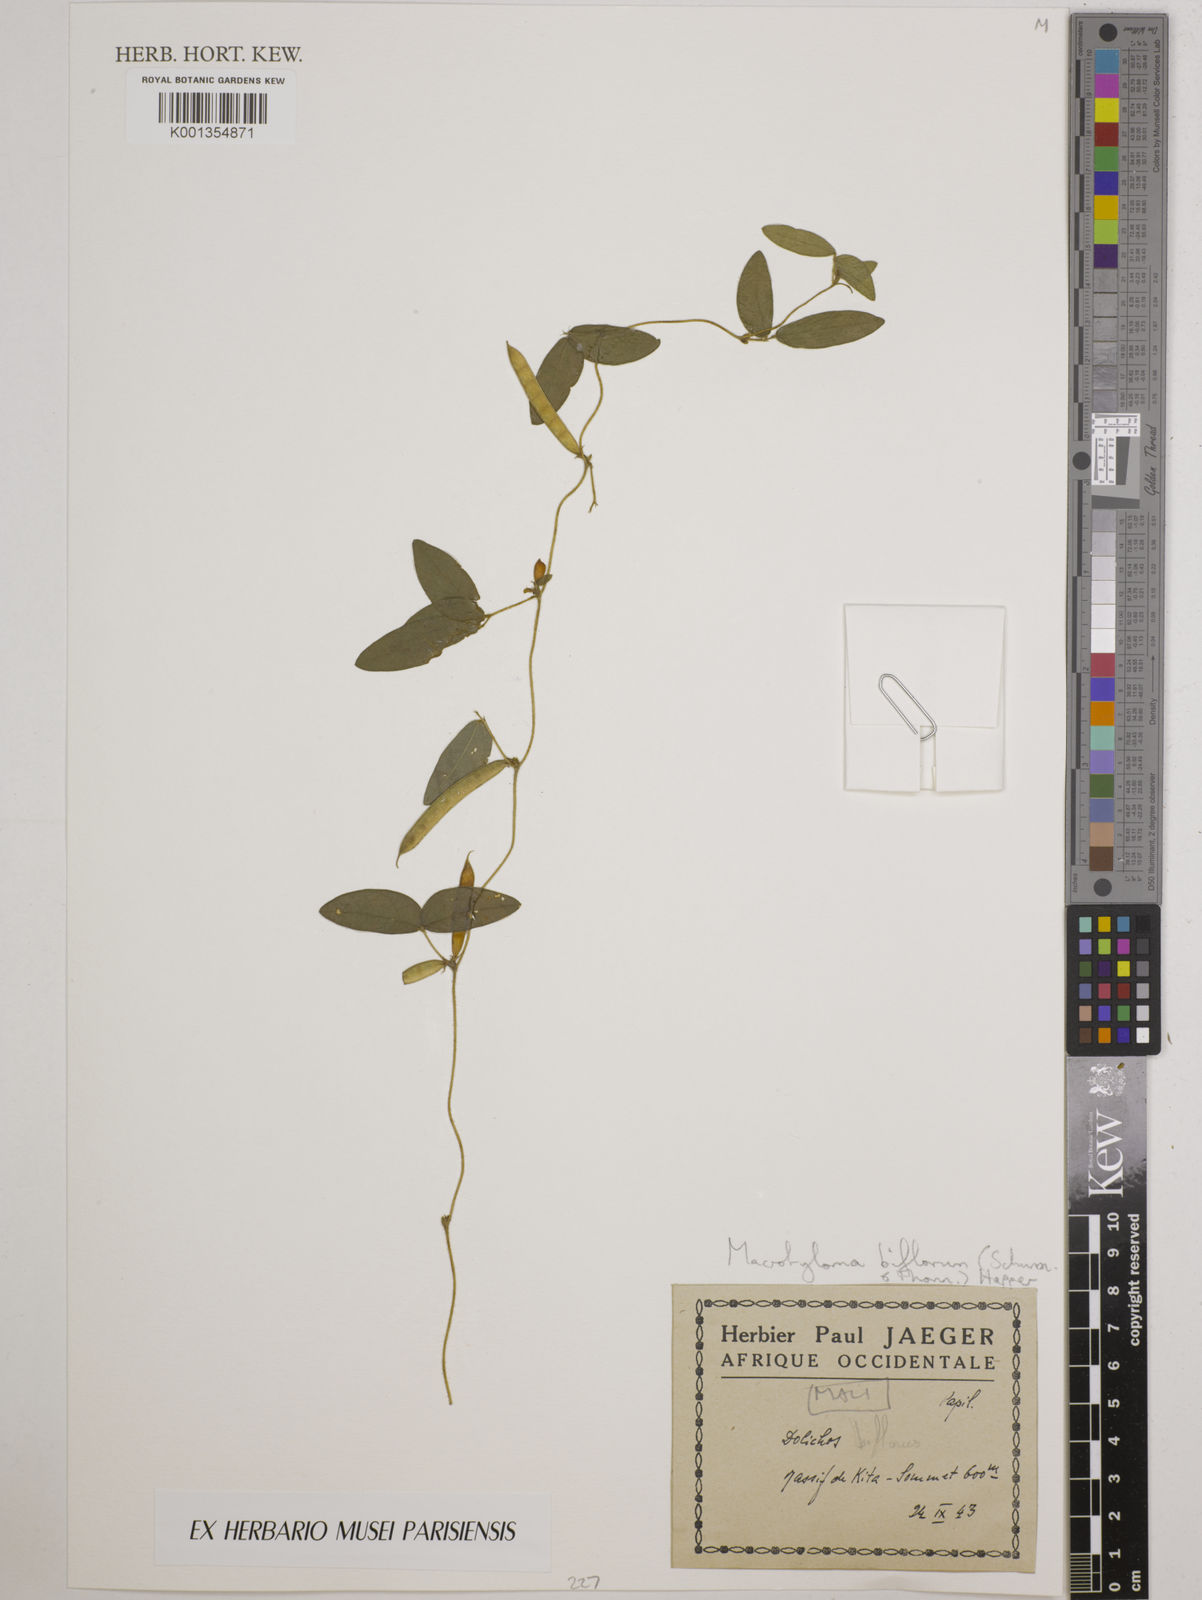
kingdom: Plantae
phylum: Tracheophyta
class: Magnoliopsida
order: Fabales
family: Fabaceae
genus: Macrotyloma
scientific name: Macrotyloma biflorum
